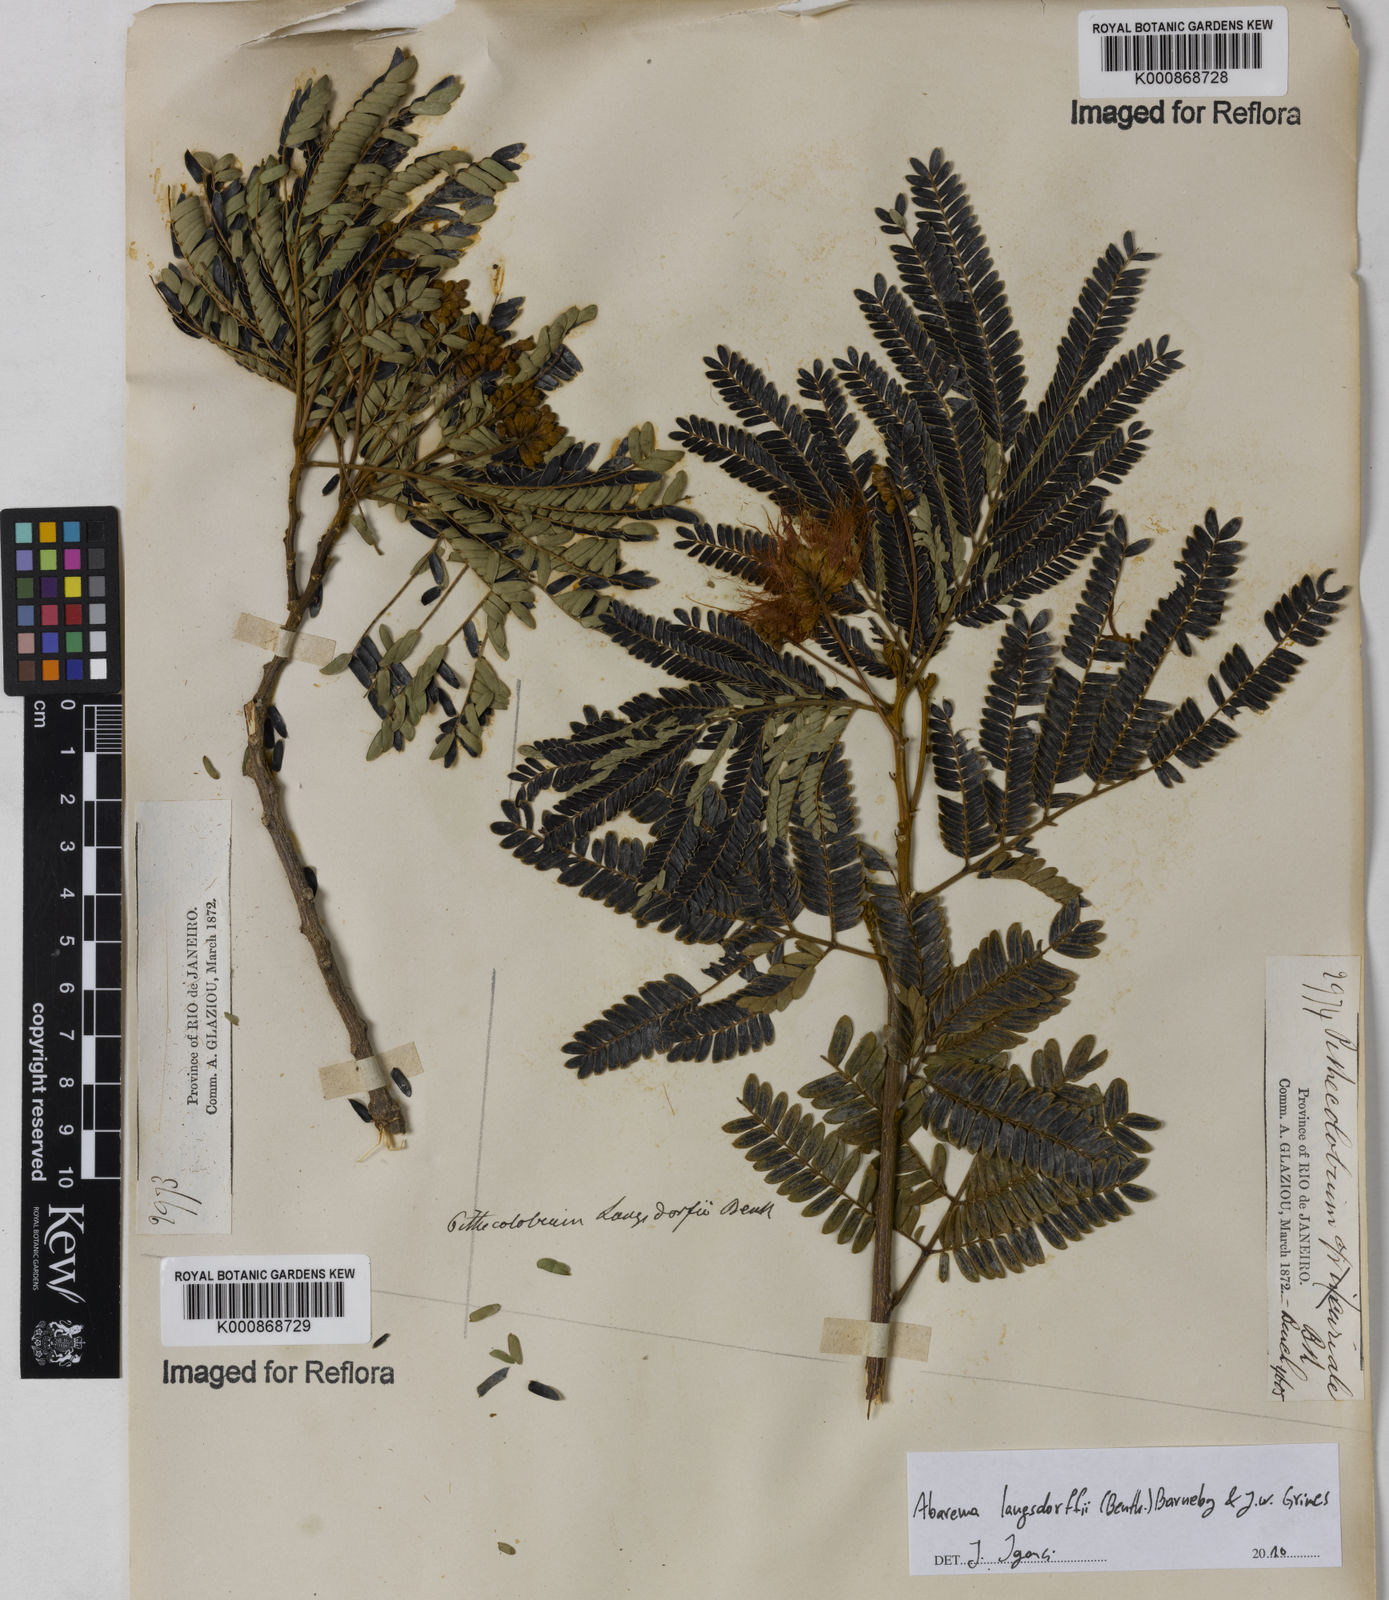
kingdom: Plantae
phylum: Tracheophyta
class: Magnoliopsida
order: Fabales
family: Fabaceae
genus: Jupunba
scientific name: Jupunba langsdorffii
